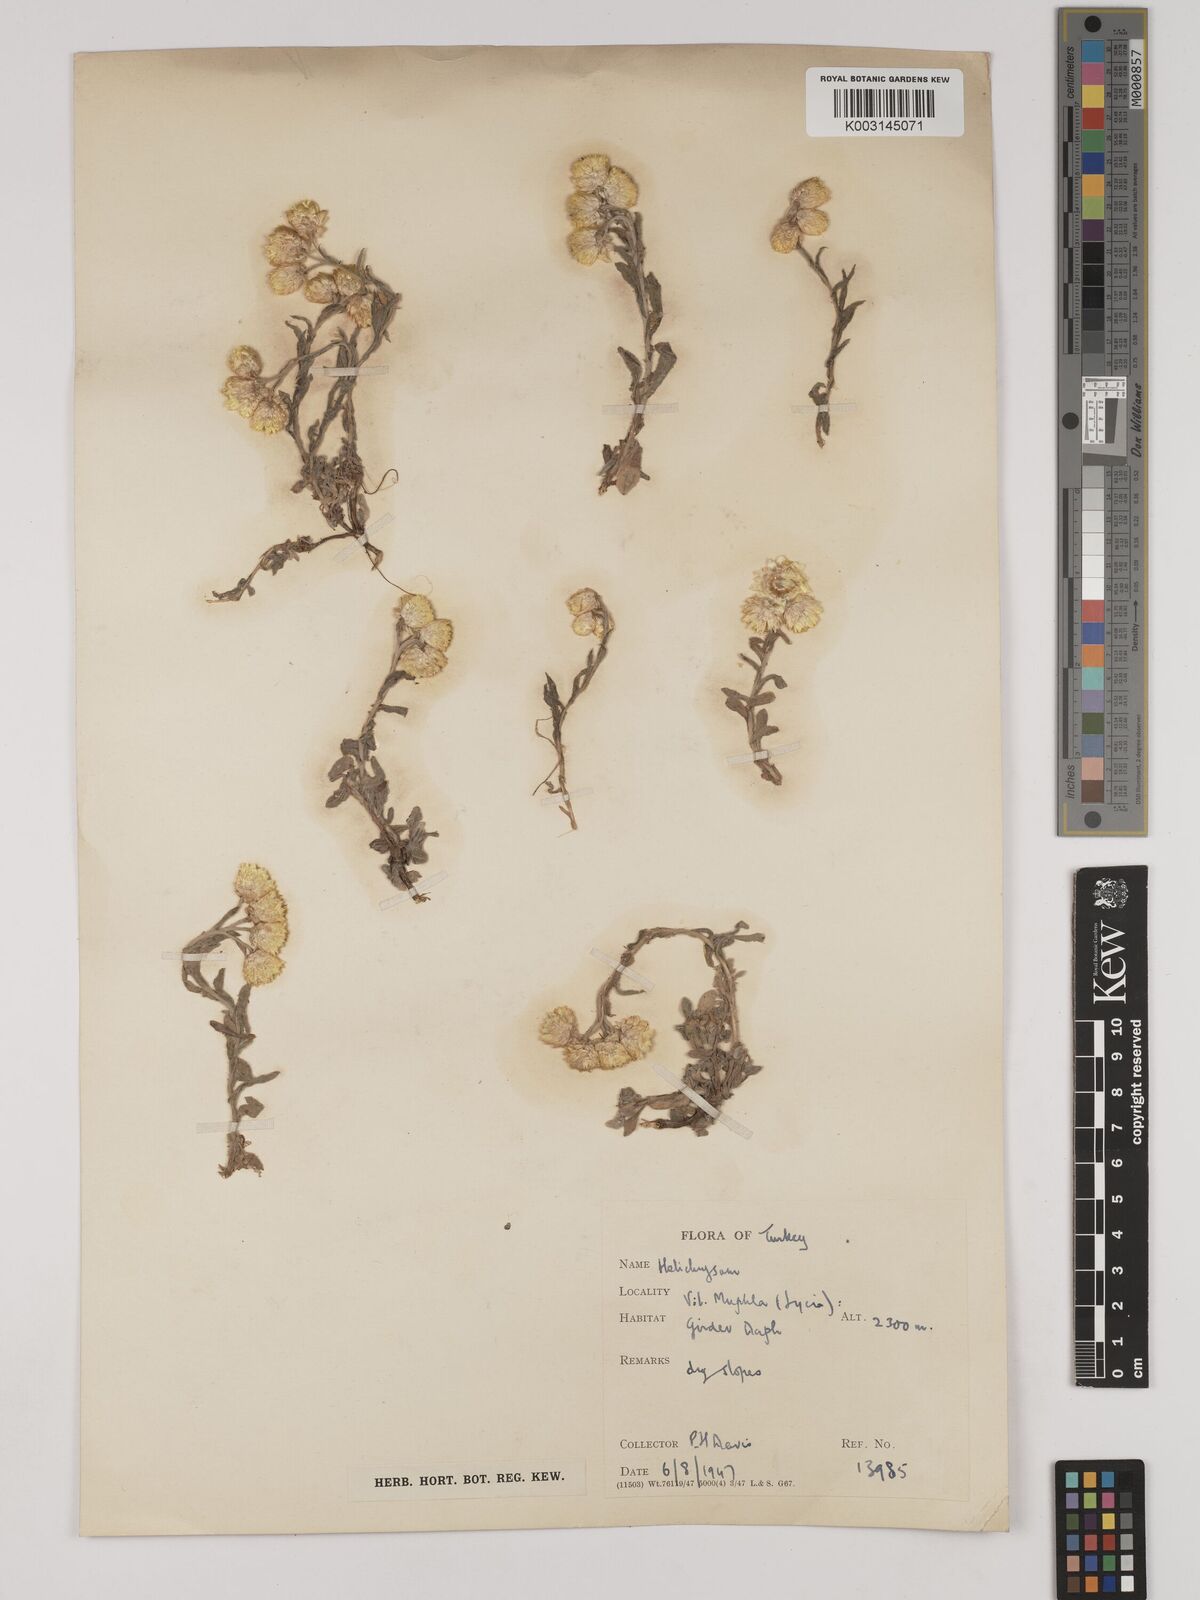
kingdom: Plantae
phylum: Tracheophyta
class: Magnoliopsida
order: Asterales
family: Asteraceae
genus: Helichrysum
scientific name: Helichrysum pallasii
